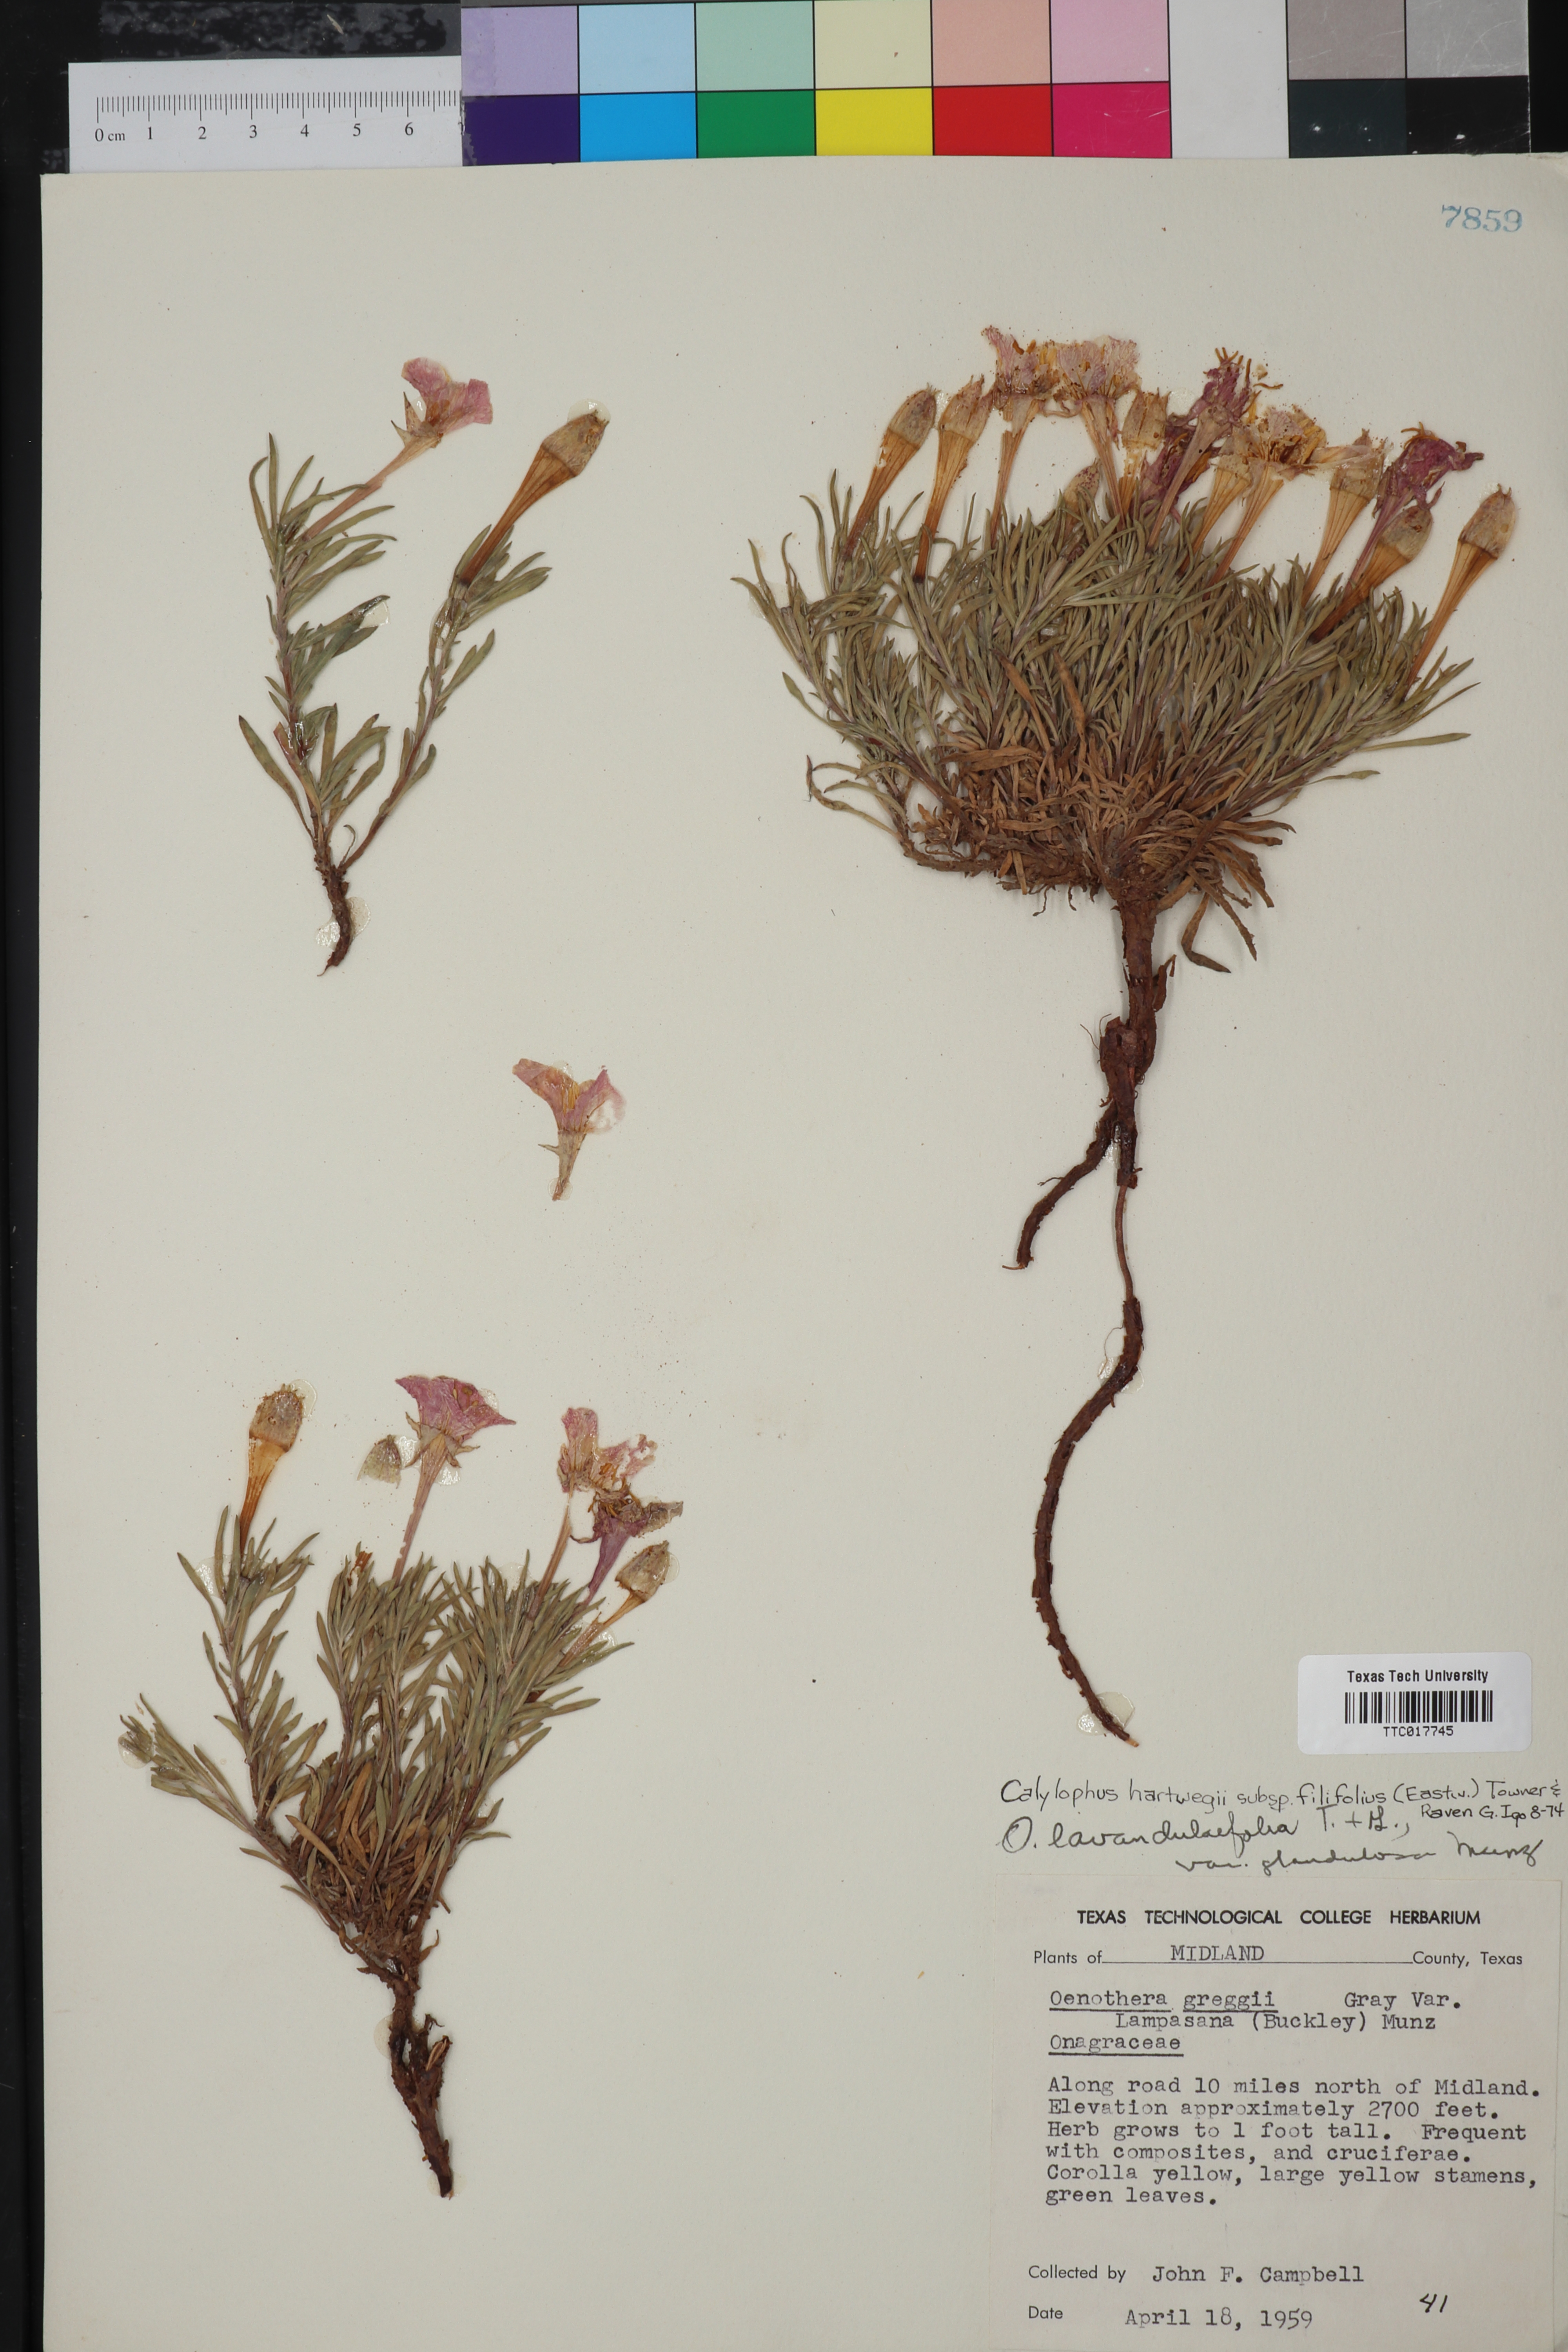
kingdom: Plantae
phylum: Tracheophyta
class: Magnoliopsida
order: Myrtales
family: Onagraceae
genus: Oenothera
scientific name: Oenothera hartwegii
